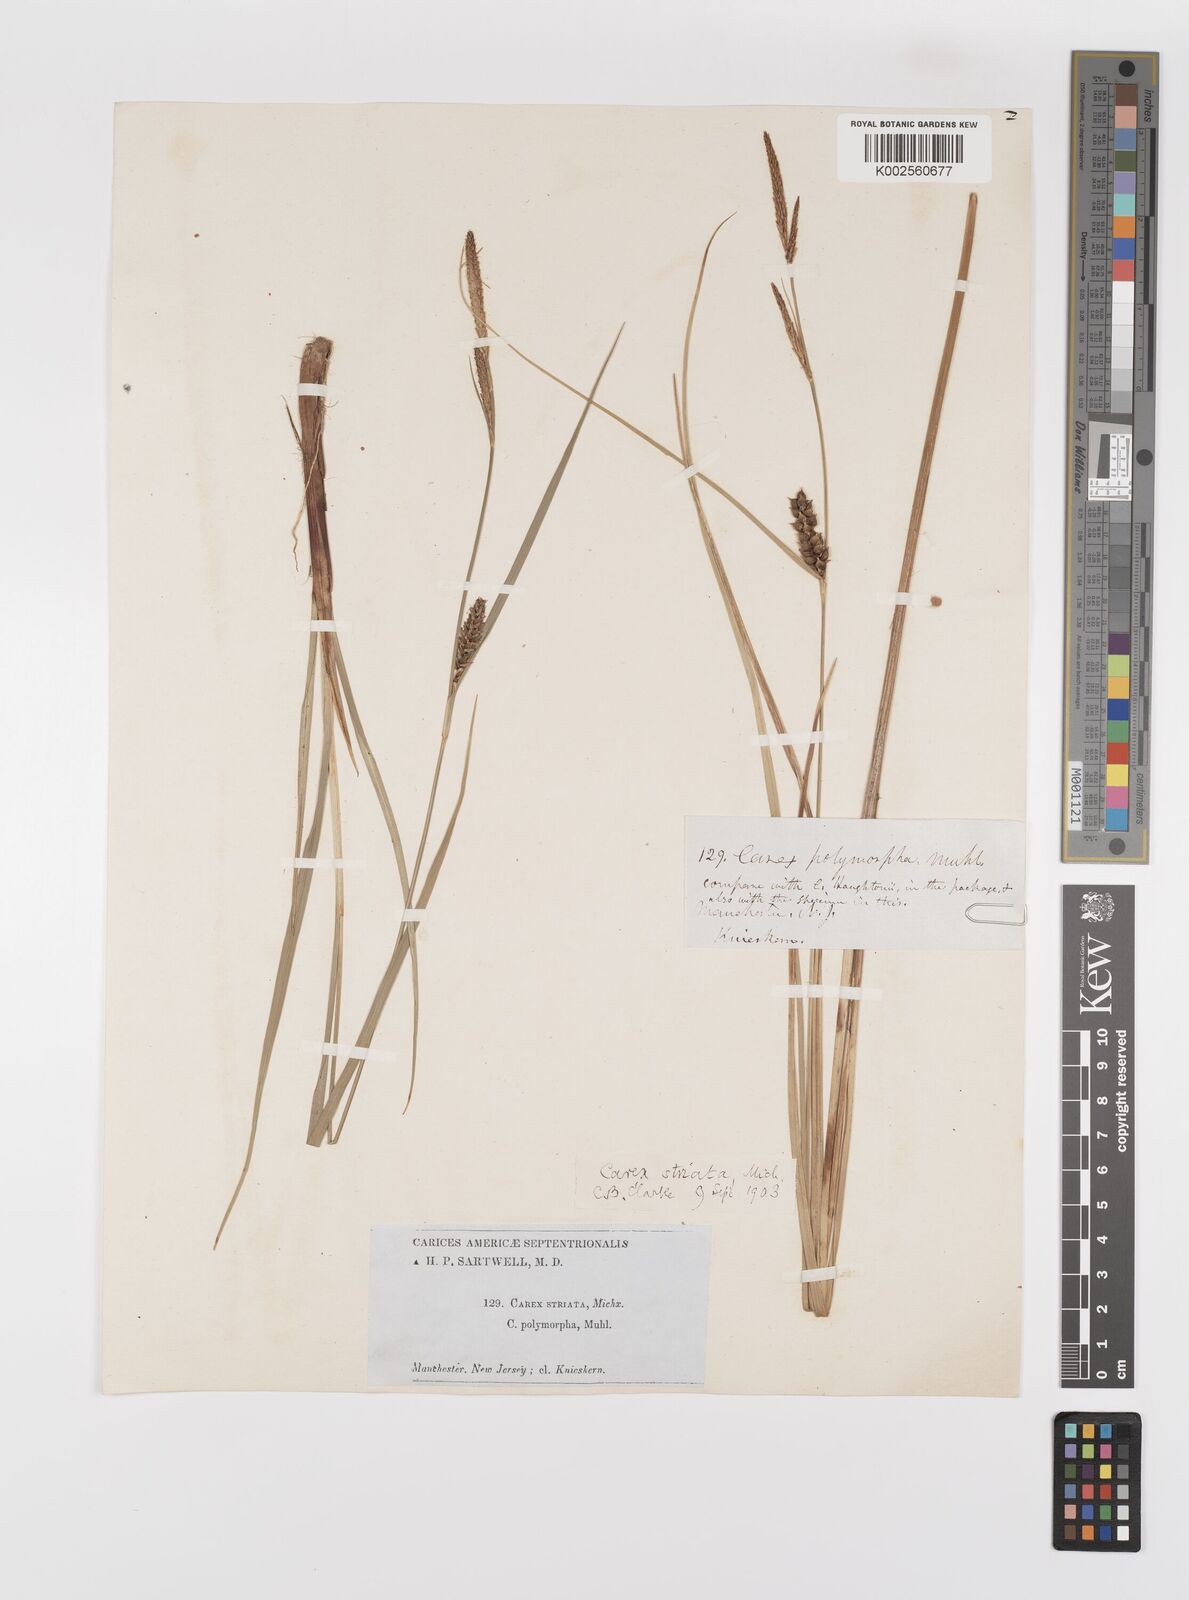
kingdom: Plantae
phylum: Tracheophyta
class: Liliopsida
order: Poales
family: Cyperaceae
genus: Carex
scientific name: Carex striata
